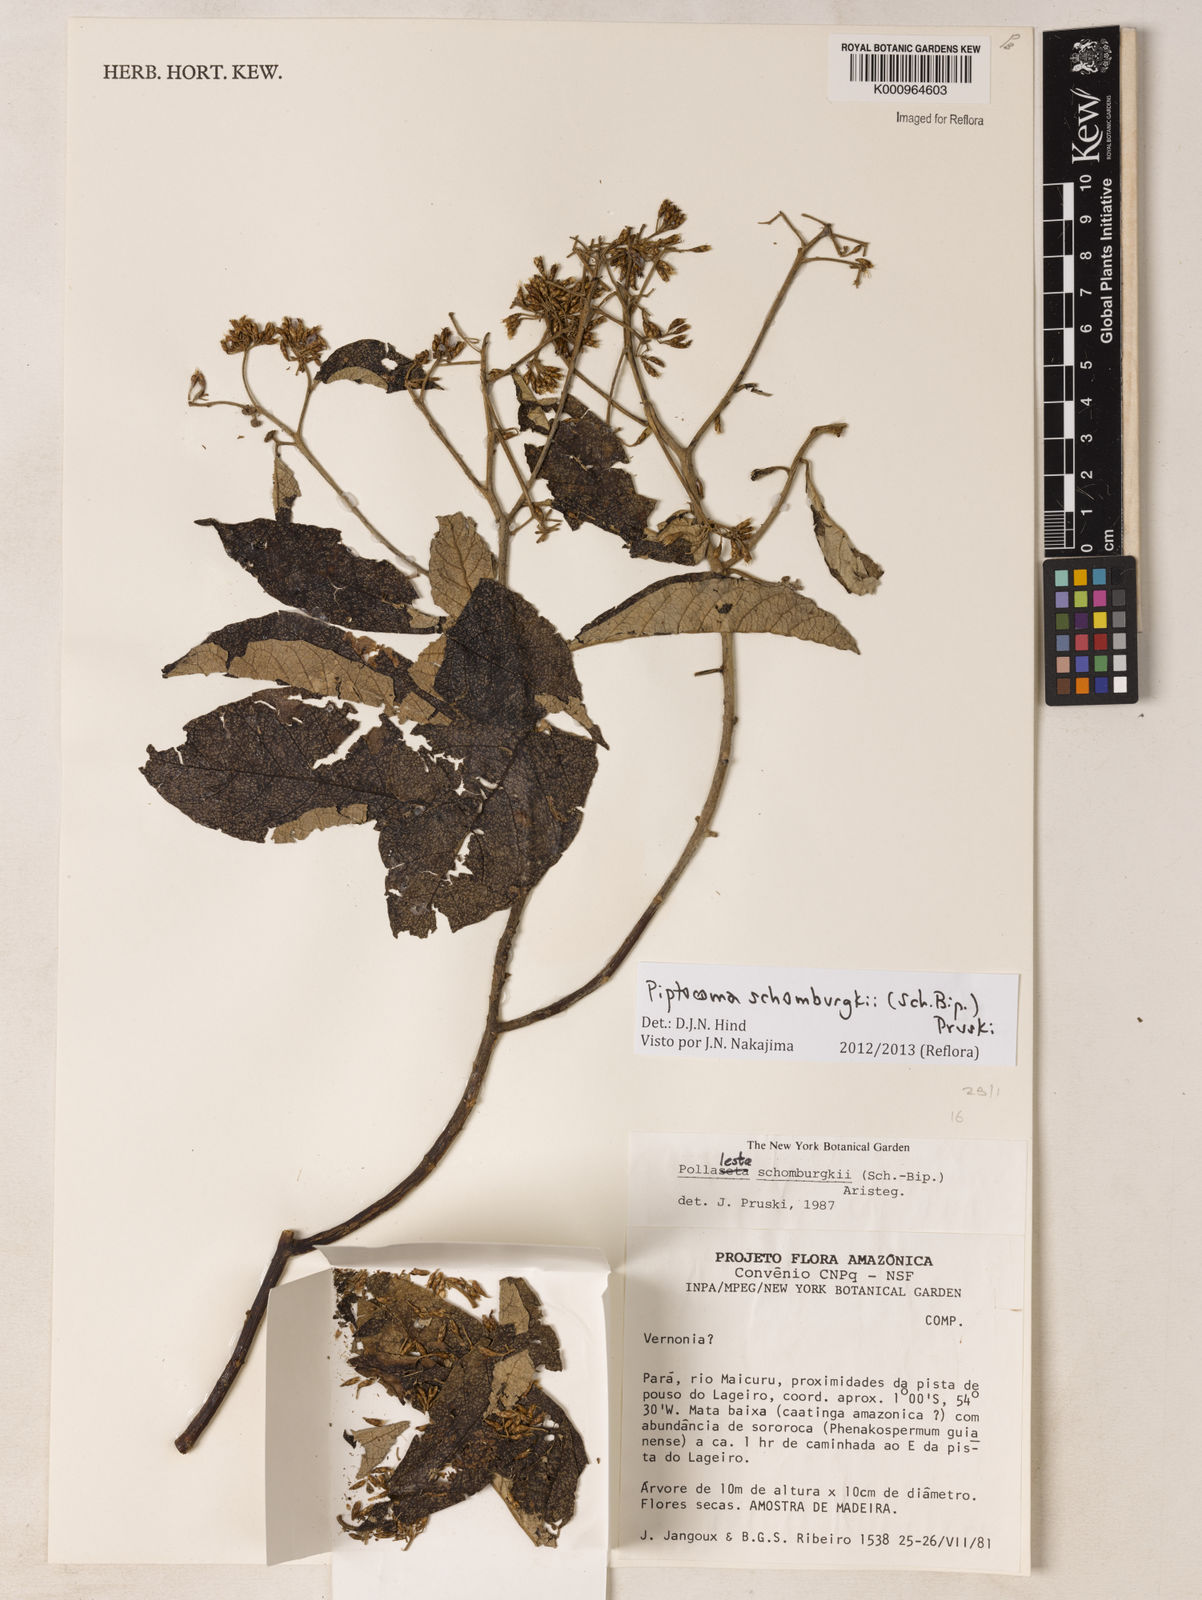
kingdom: Plantae
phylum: Tracheophyta
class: Magnoliopsida
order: Asterales
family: Asteraceae
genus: Piptocoma
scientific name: Piptocoma schomburgkii
